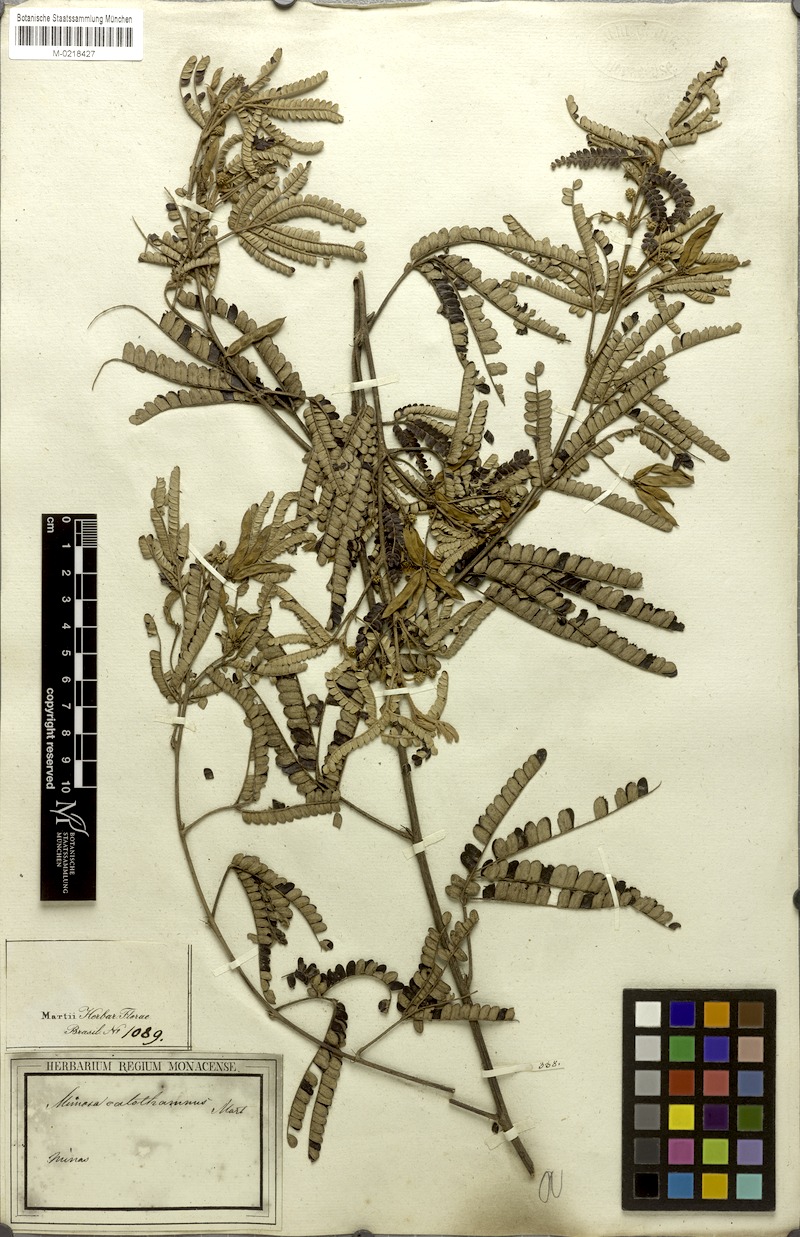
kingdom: Plantae
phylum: Tracheophyta
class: Magnoliopsida
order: Fabales
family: Fabaceae
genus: Mimosa
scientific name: Mimosa aurivillus
